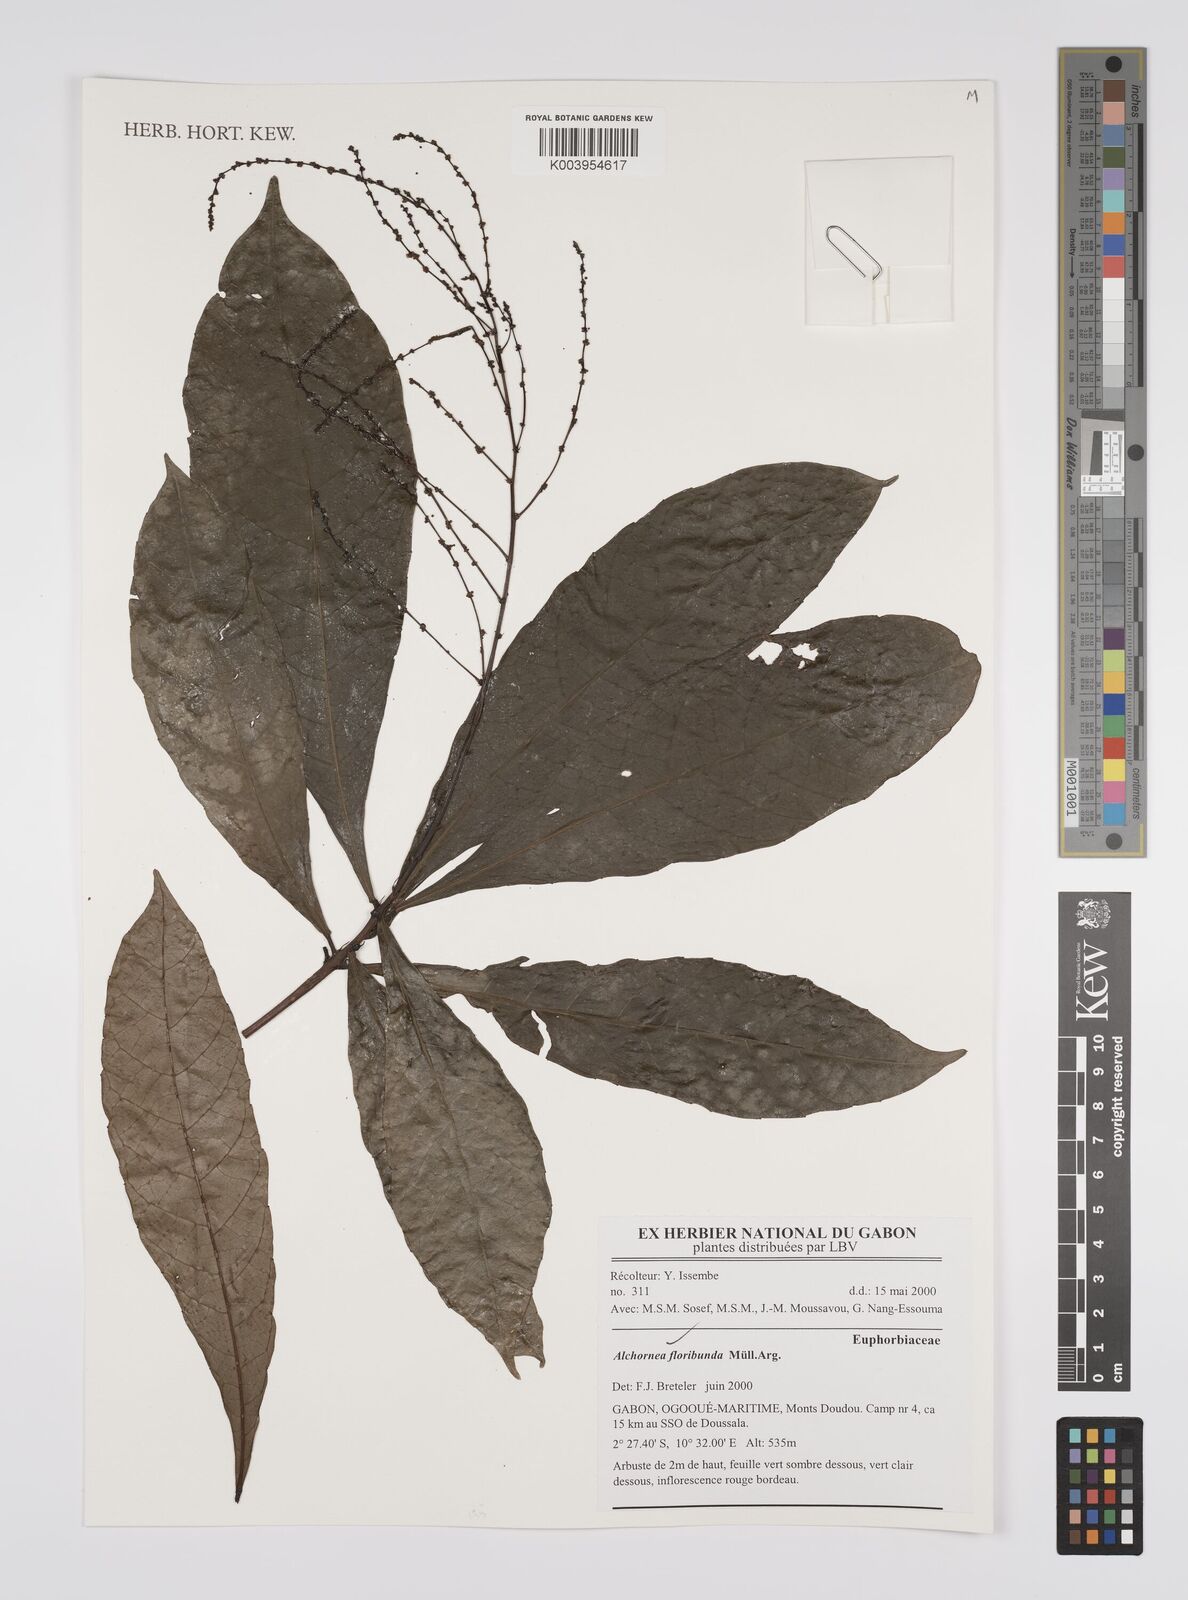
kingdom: Plantae
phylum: Tracheophyta
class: Magnoliopsida
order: Malpighiales
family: Euphorbiaceae
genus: Alchornea
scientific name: Alchornea floribunda
